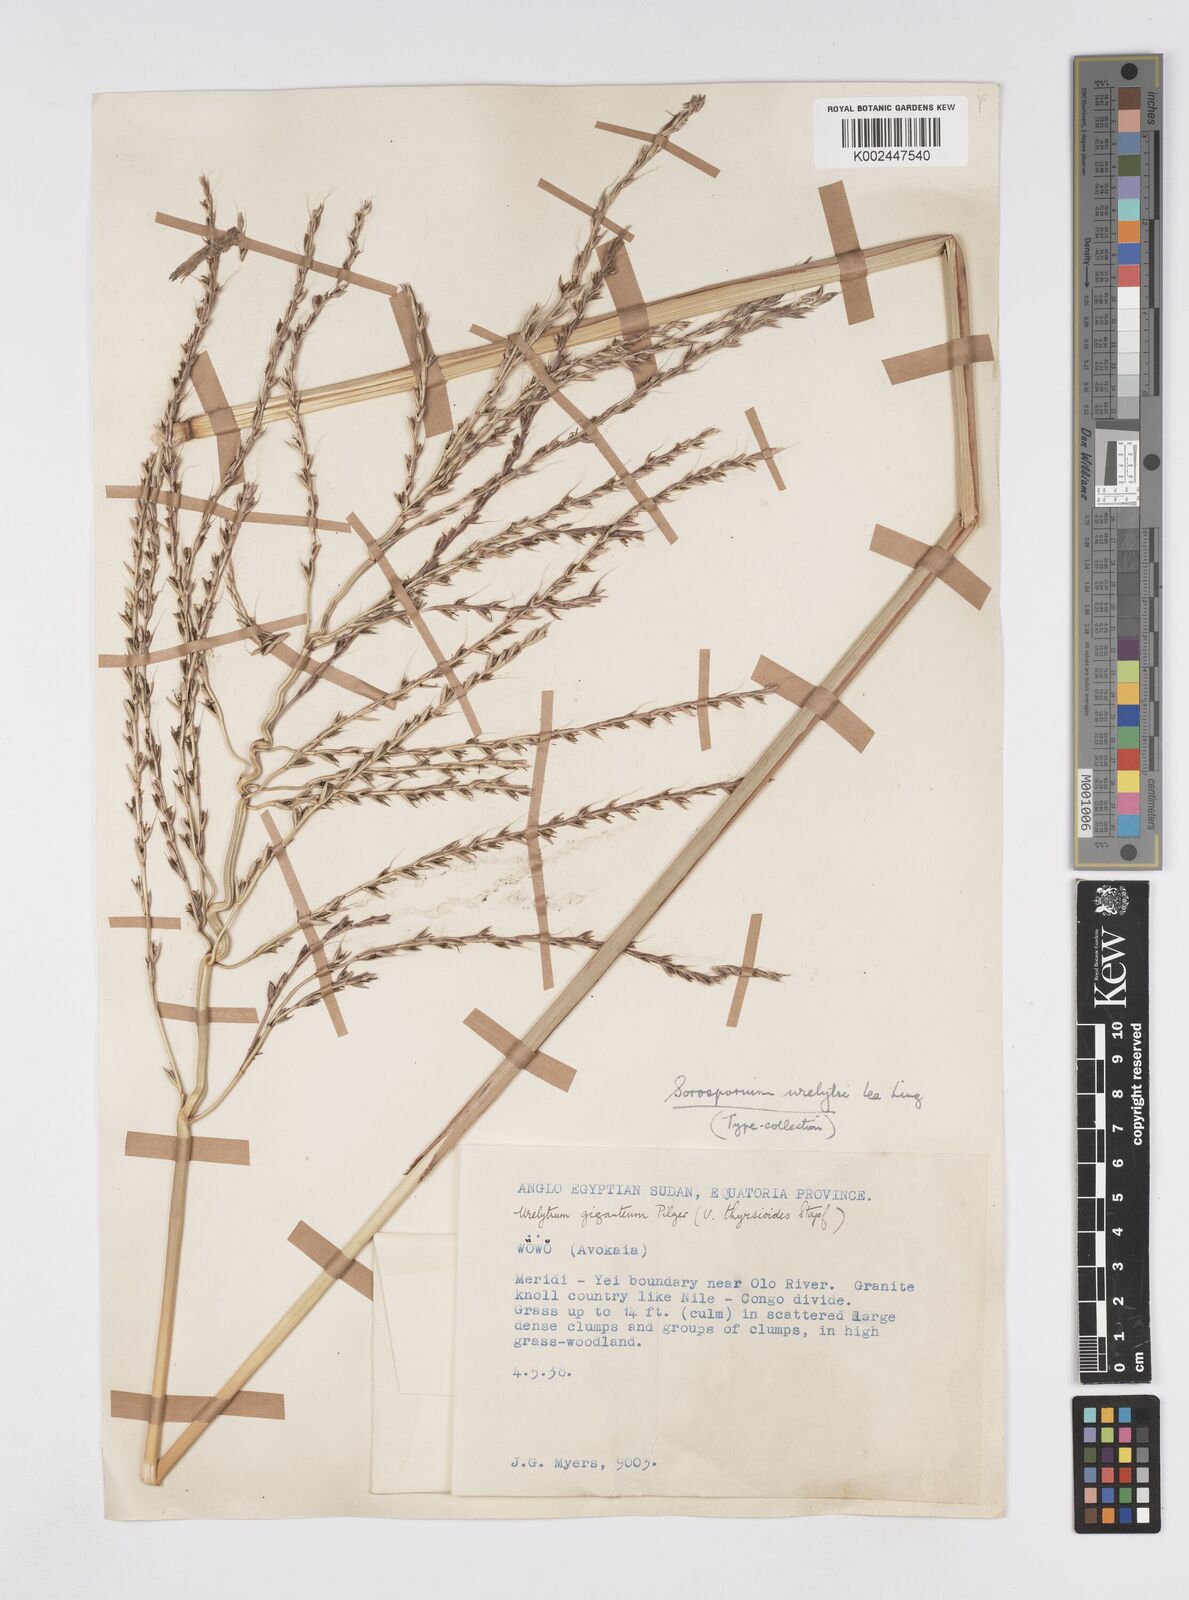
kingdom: Plantae
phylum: Tracheophyta
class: Liliopsida
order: Poales
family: Poaceae
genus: Urelytrum
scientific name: Urelytrum giganteum
